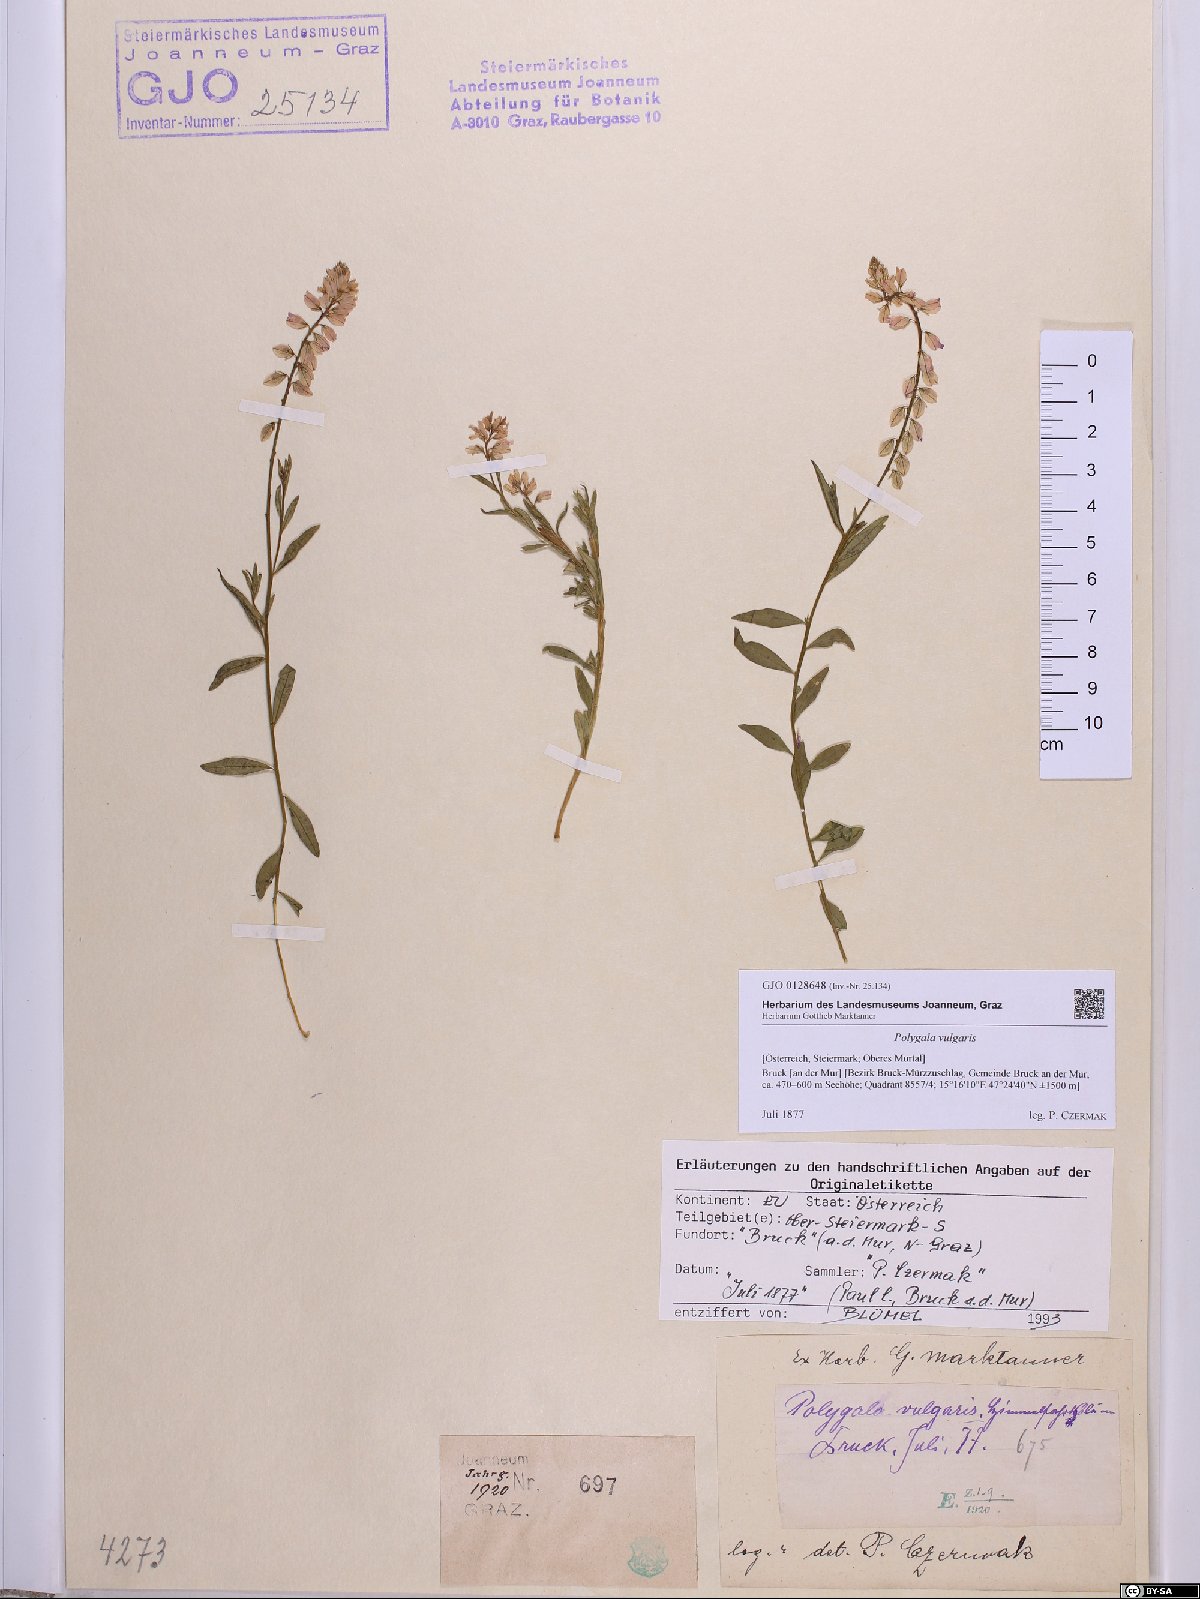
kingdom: Plantae
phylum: Tracheophyta
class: Magnoliopsida
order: Fabales
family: Polygalaceae
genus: Polygala
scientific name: Polygala vulgaris
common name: Common milkwort
